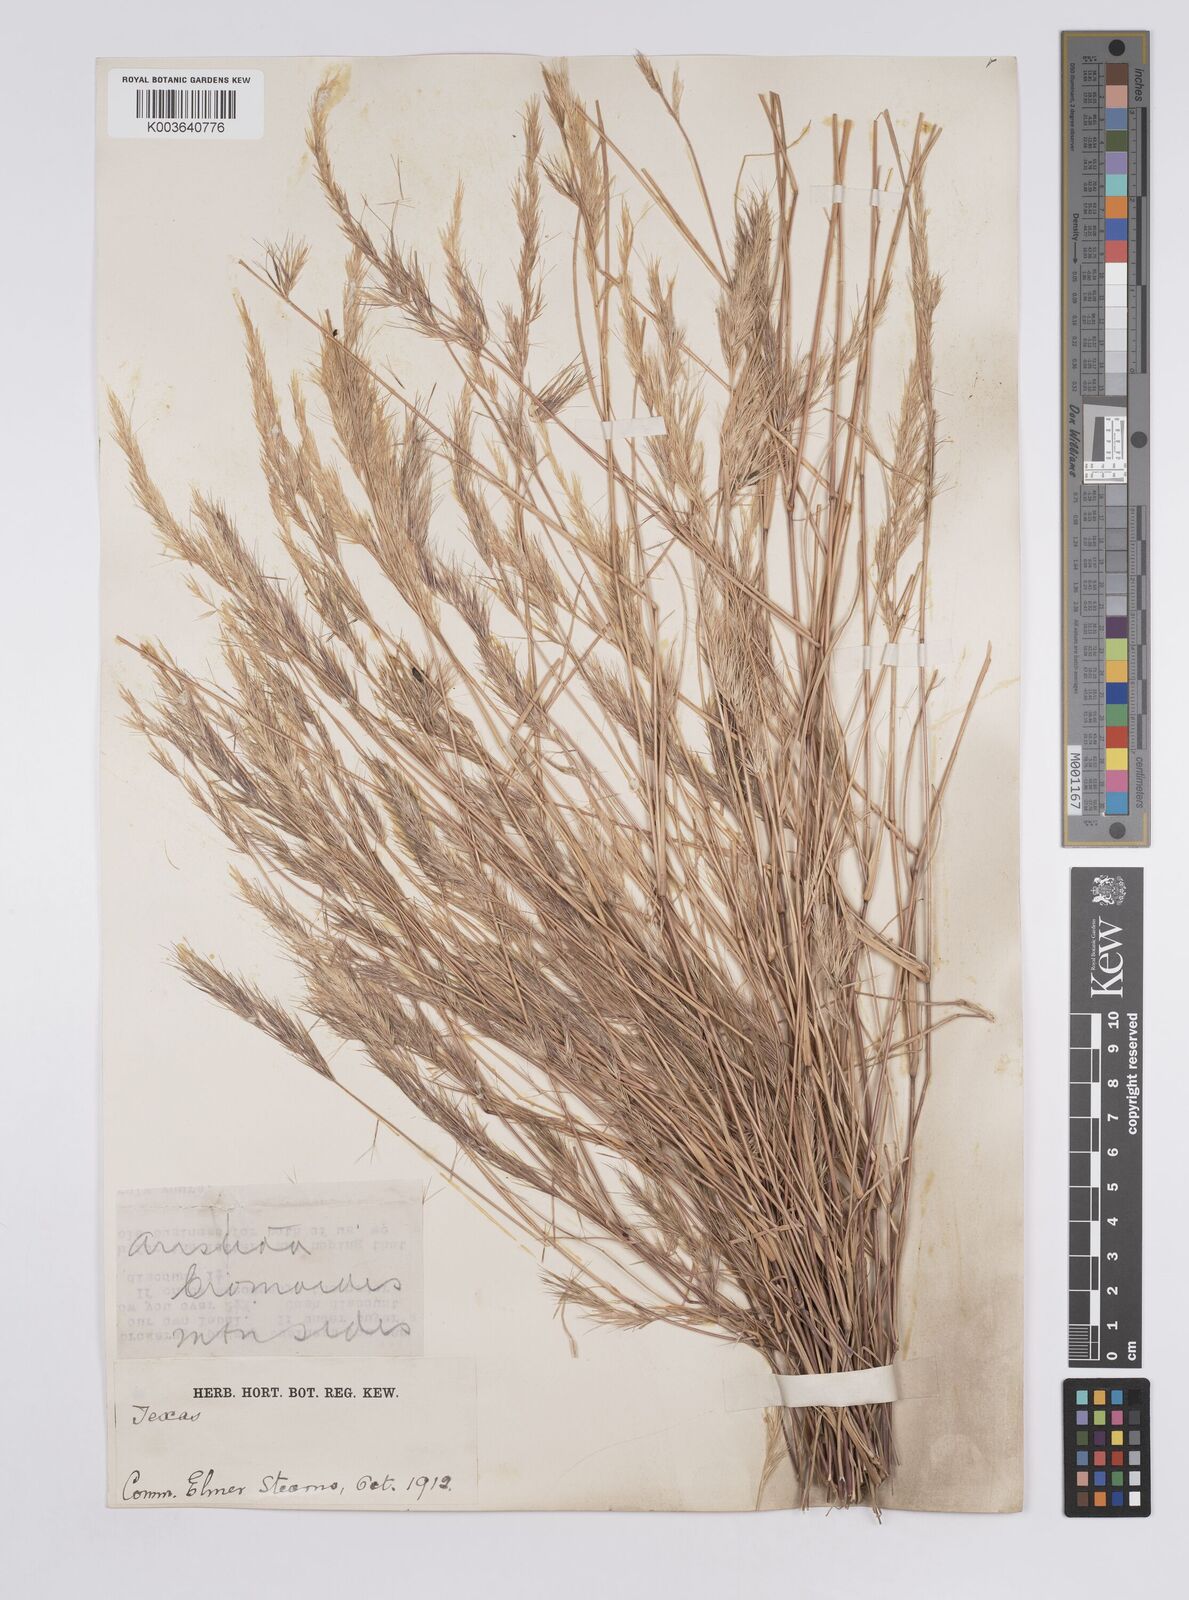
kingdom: Plantae
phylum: Tracheophyta
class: Liliopsida
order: Poales
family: Poaceae
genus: Aristida
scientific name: Aristida adscensionis
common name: Sixweeks threeawn
